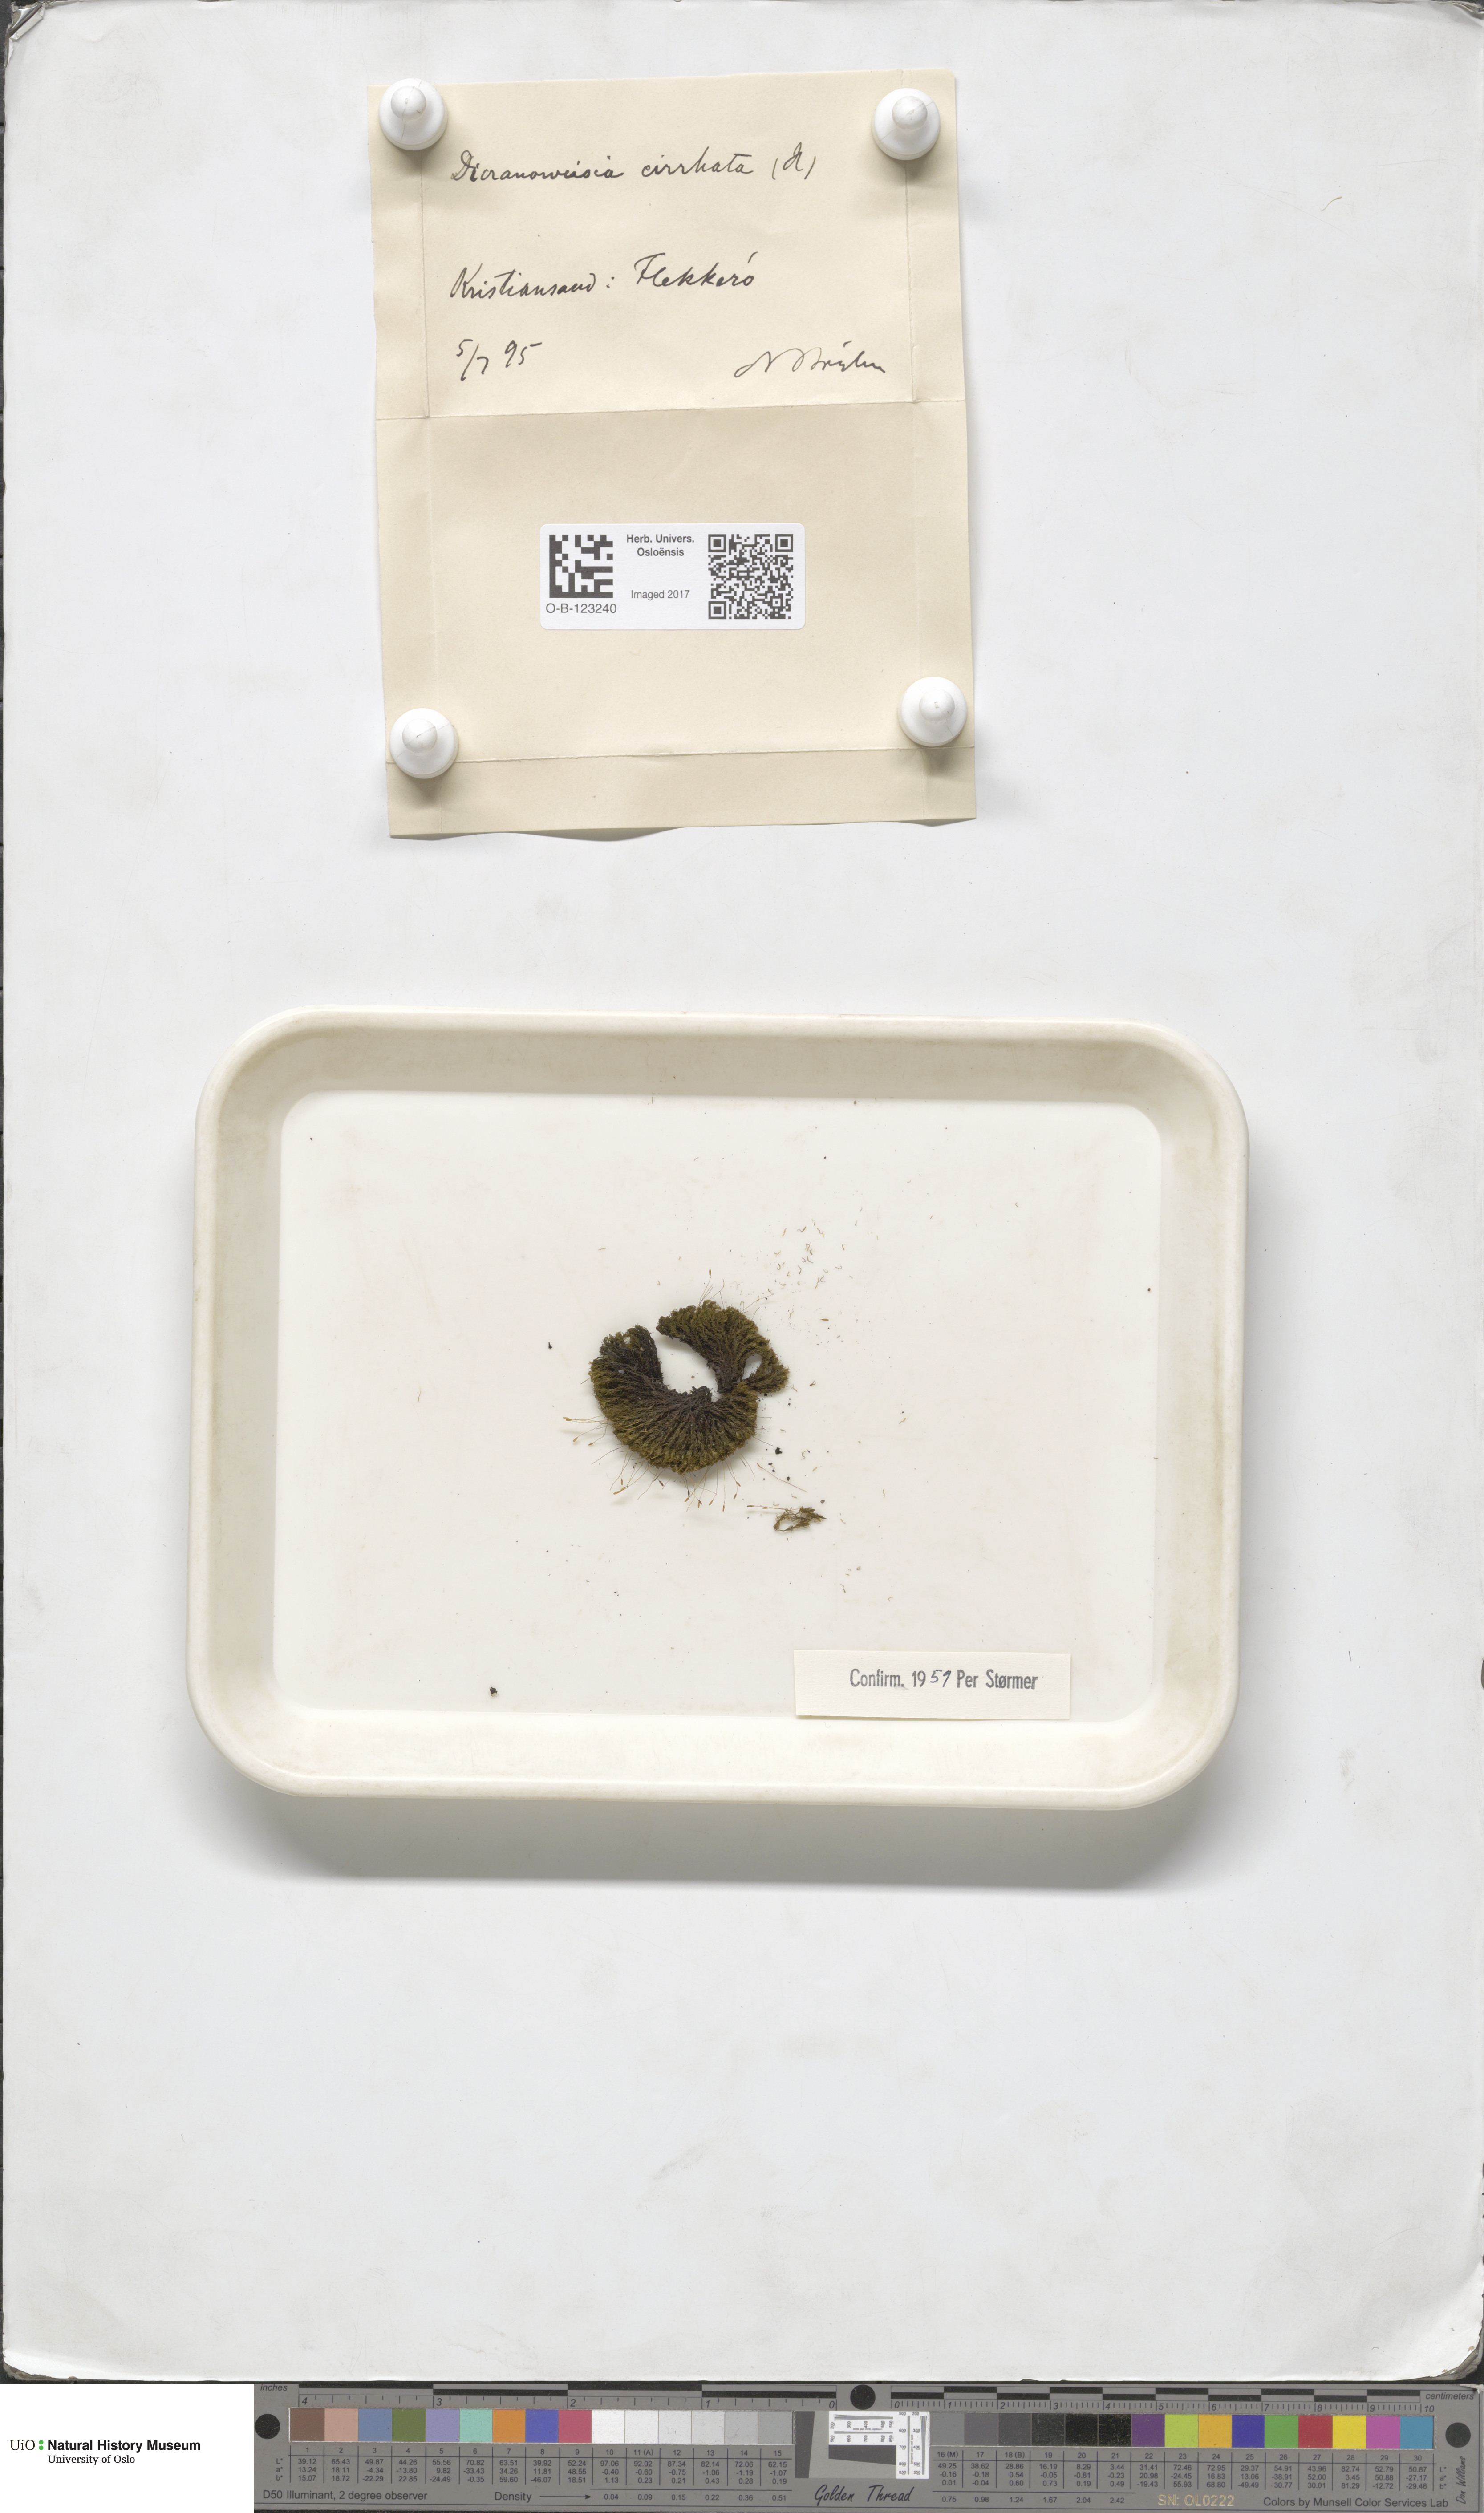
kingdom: Plantae
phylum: Bryophyta
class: Bryopsida
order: Dicranales
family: Rhabdoweisiaceae
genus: Dicranoweisia
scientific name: Dicranoweisia cirrata
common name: Common pincushion
